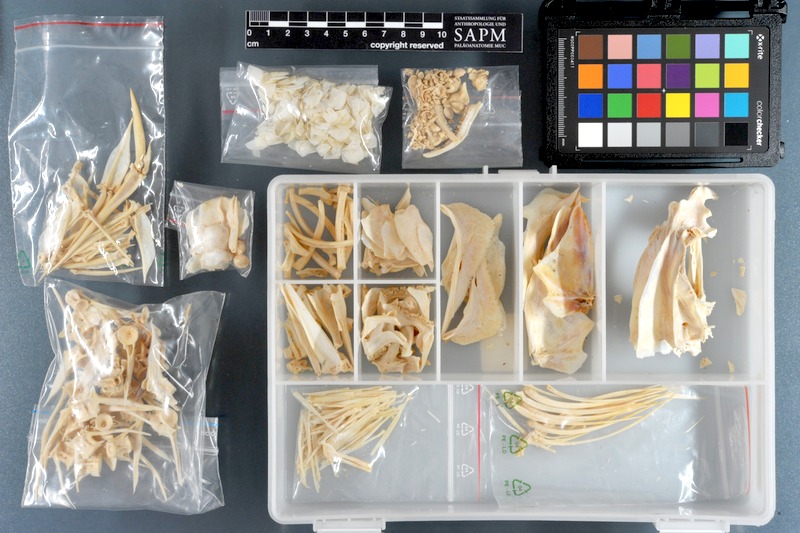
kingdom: Animalia
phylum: Chordata
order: Perciformes
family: Haemulidae
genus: Diagramma
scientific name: Diagramma pictum
